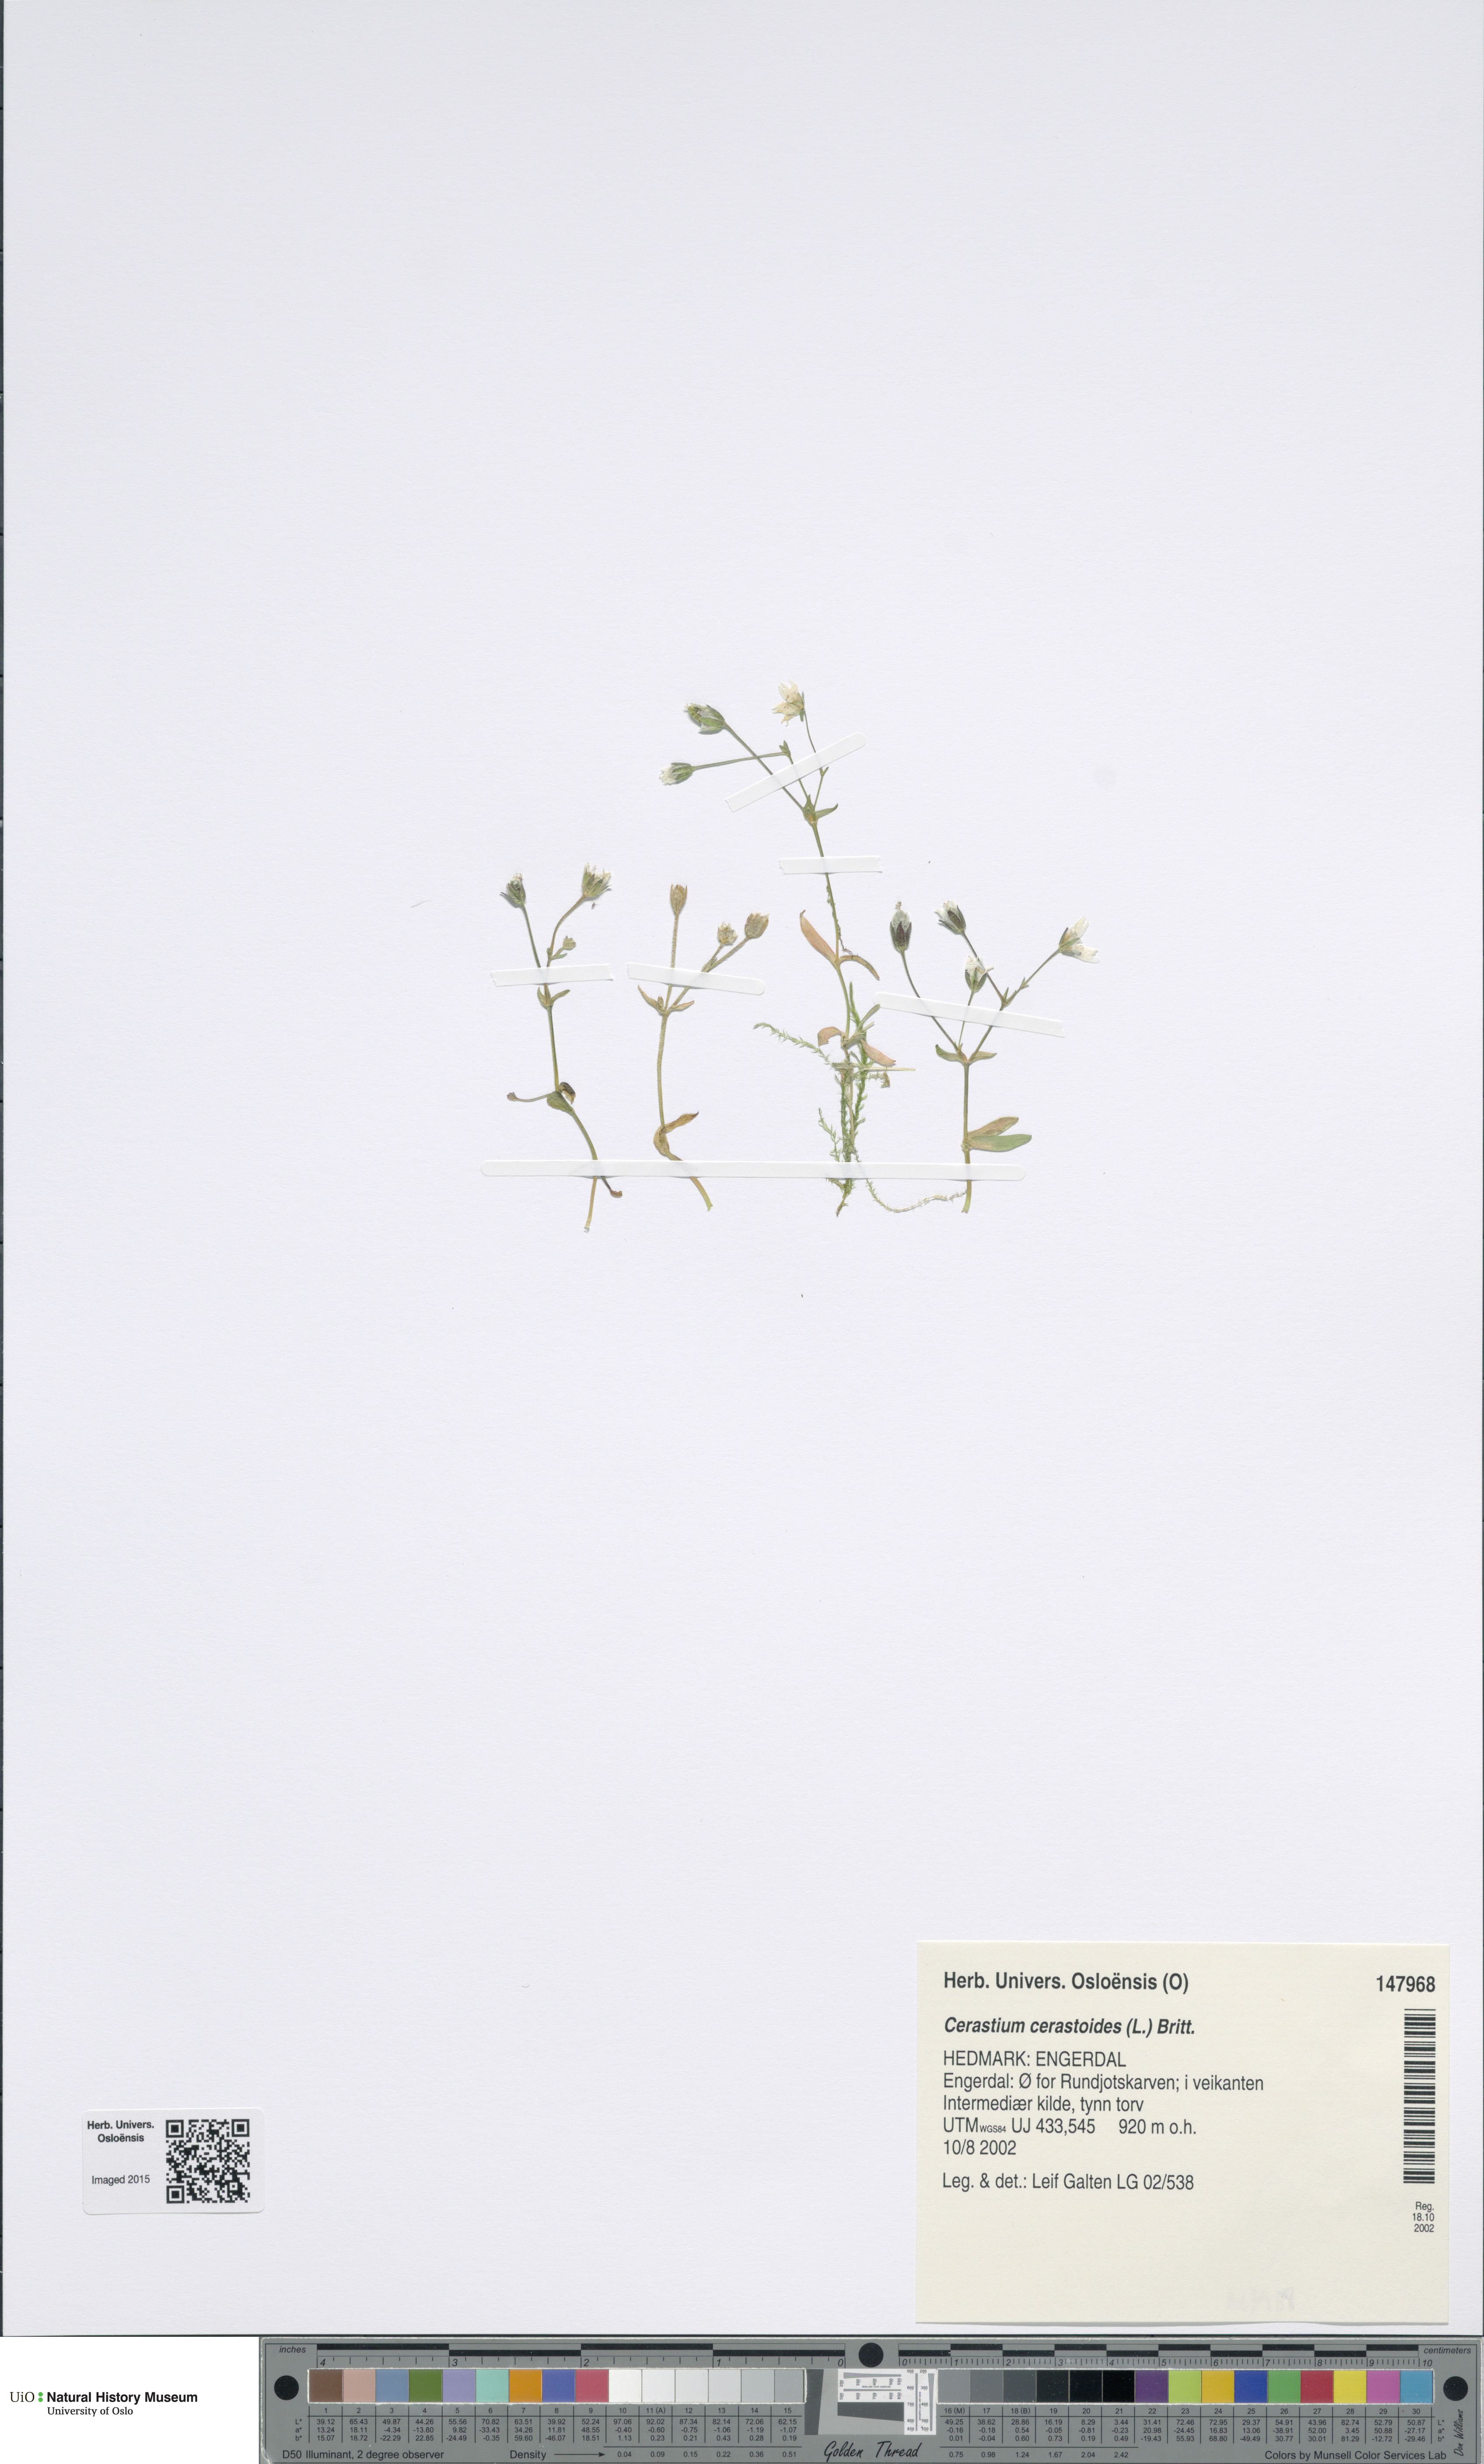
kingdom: Plantae
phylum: Tracheophyta
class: Magnoliopsida
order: Caryophyllales
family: Caryophyllaceae
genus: Dichodon
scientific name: Dichodon cerastoides
